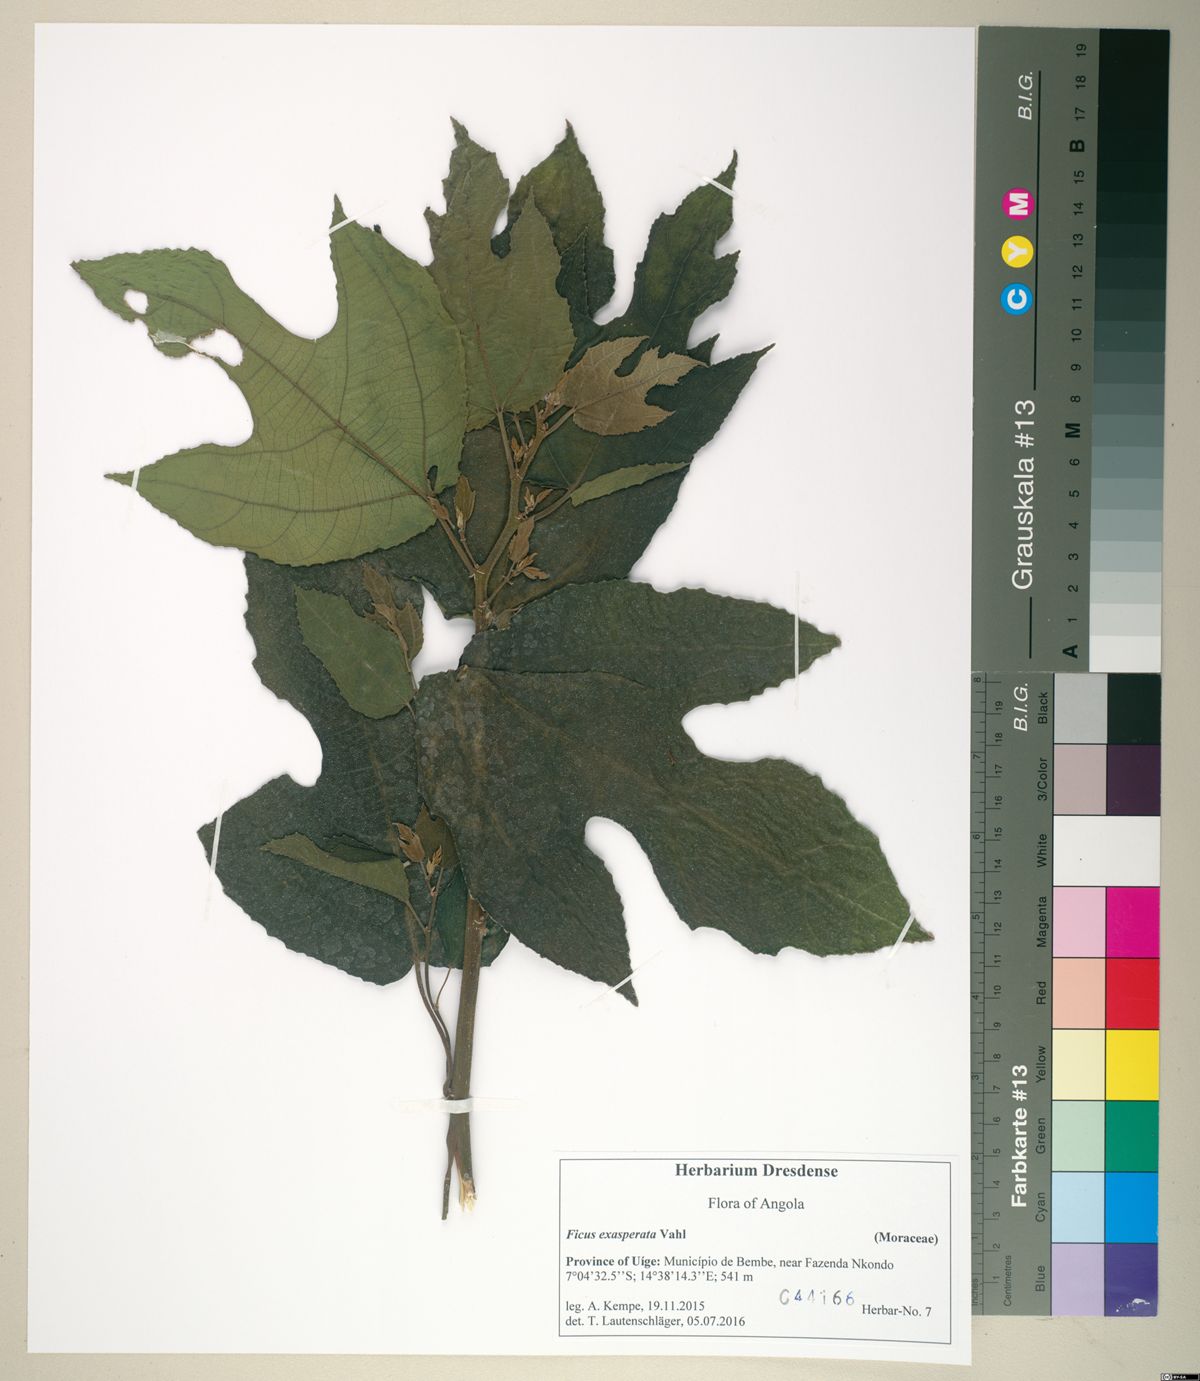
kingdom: Plantae
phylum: Tracheophyta
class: Magnoliopsida
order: Rosales
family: Moraceae
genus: Ficus
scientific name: Ficus exasperata
